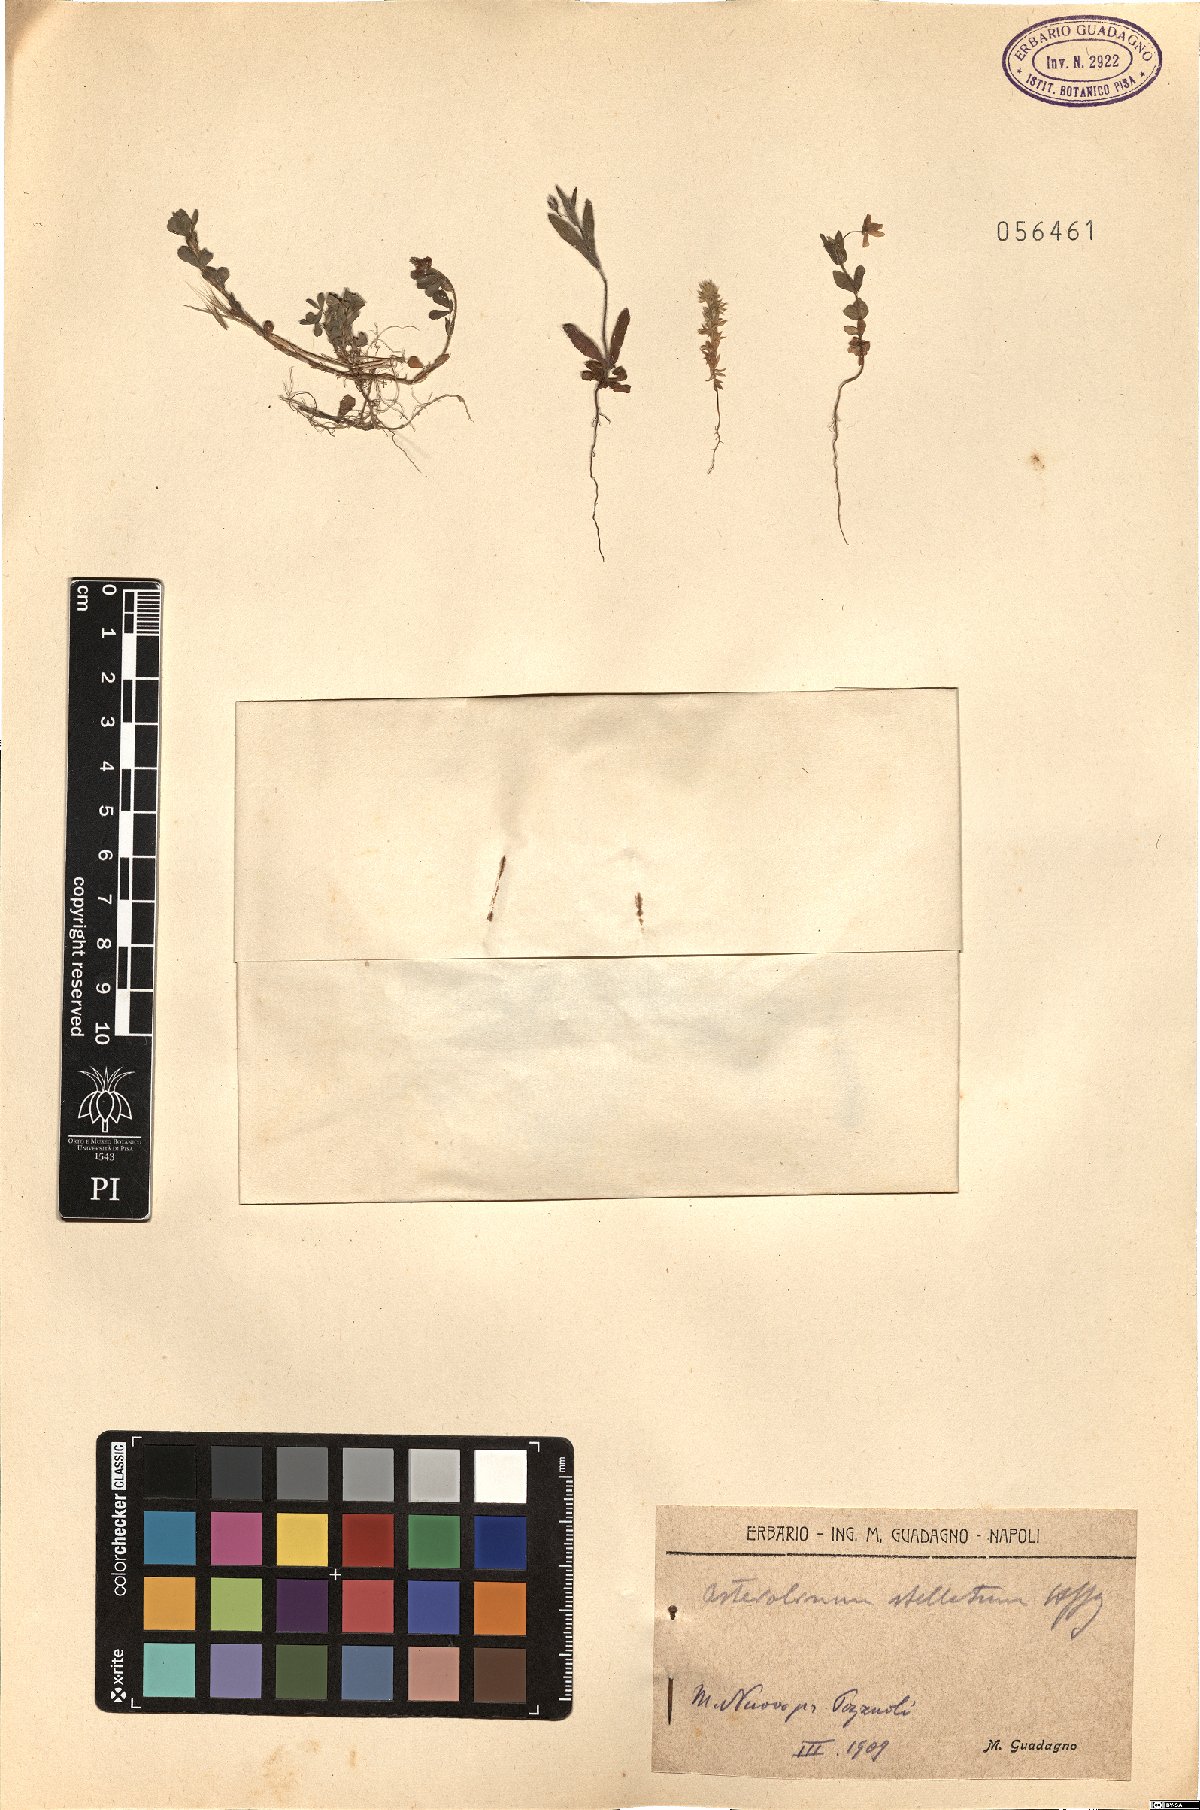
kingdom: Plantae
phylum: Tracheophyta
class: Magnoliopsida
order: Ericales
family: Primulaceae
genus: Lysimachia
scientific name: Lysimachia linum-stellatum
